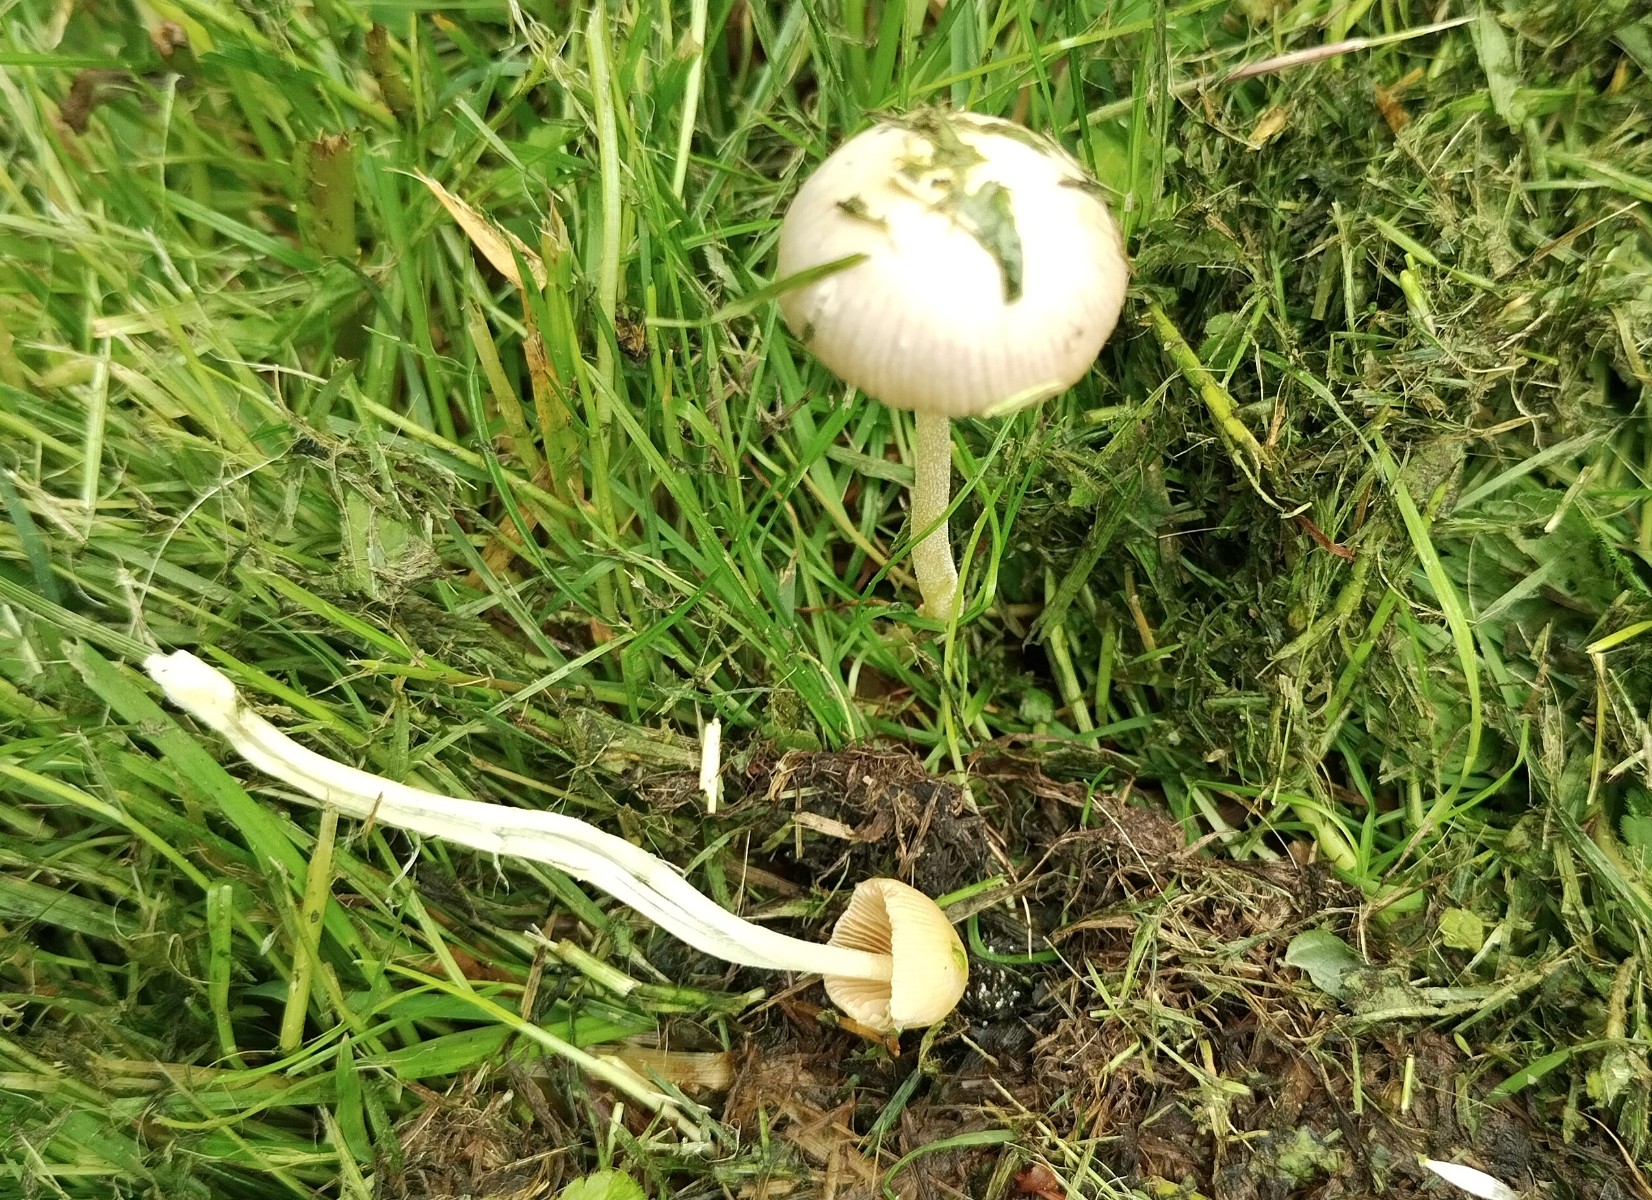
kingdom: Fungi
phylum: Basidiomycota
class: Agaricomycetes
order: Agaricales
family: Bolbitiaceae
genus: Bolbitius
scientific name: Bolbitius titubans
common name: almindelig gulhat
